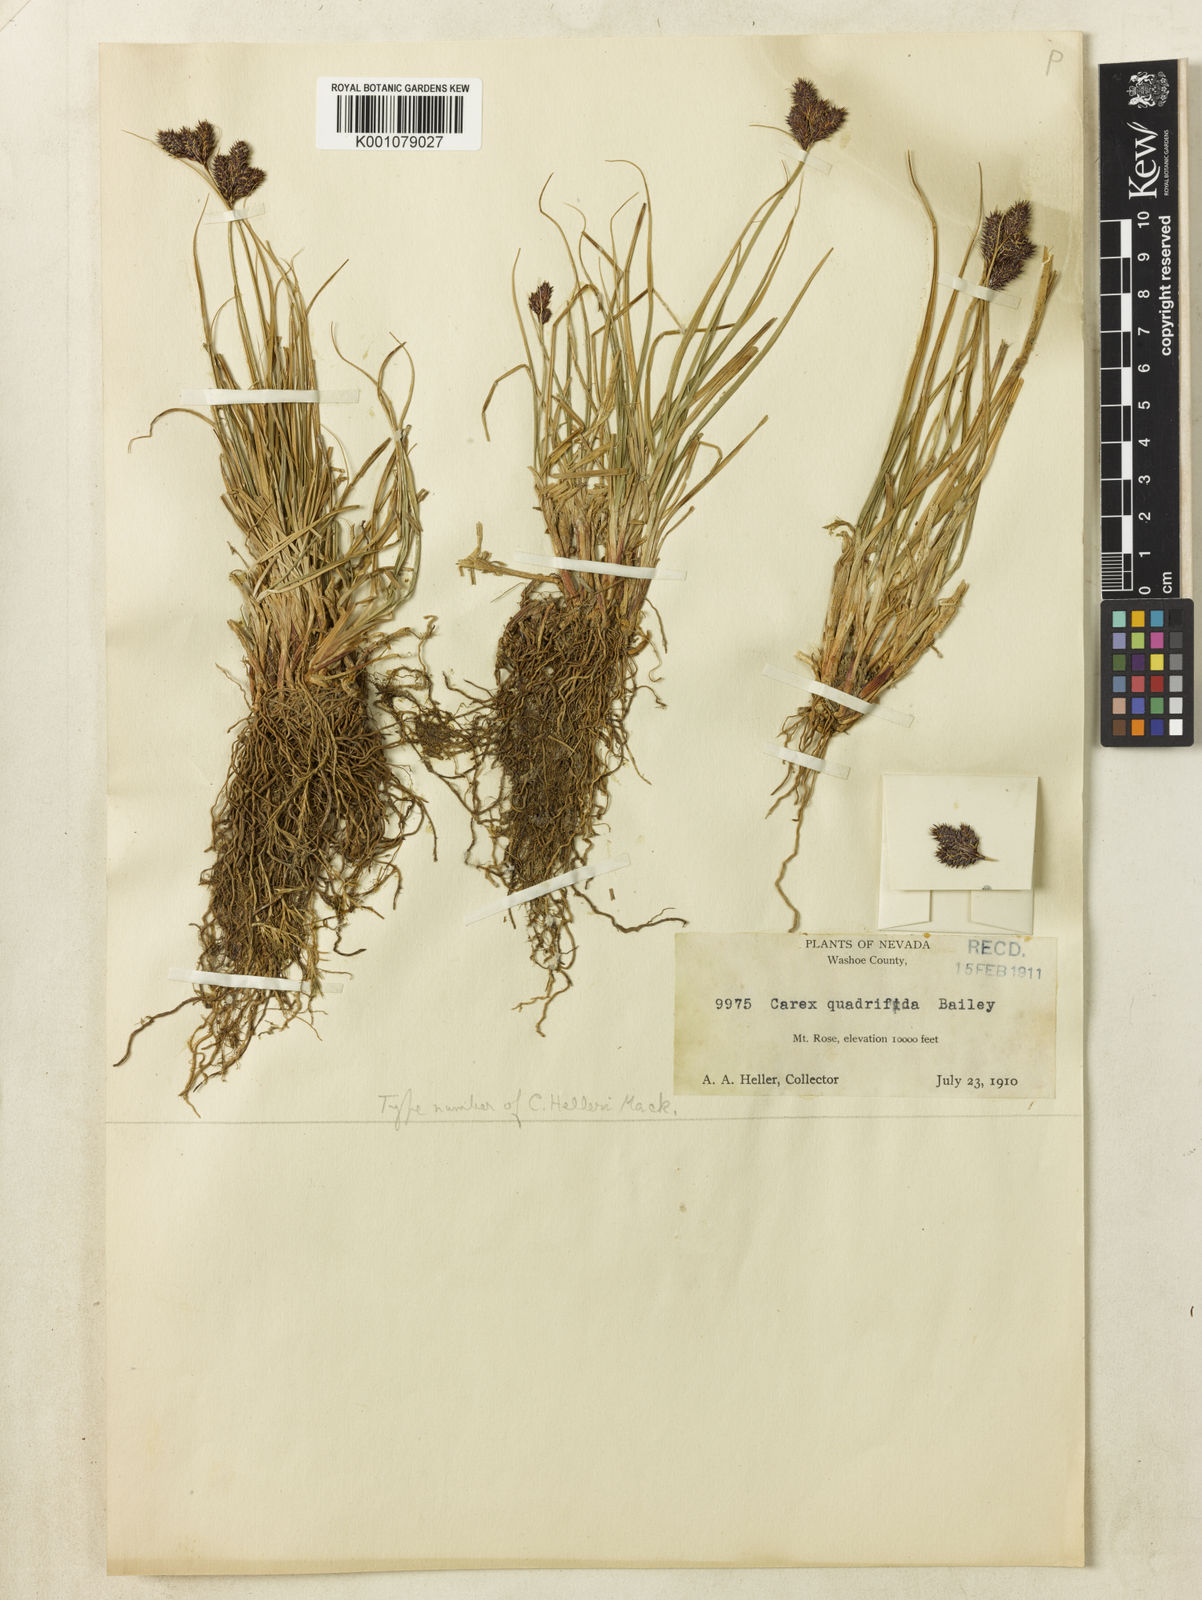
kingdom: Plantae
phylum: Tracheophyta
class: Liliopsida
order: Poales
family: Cyperaceae
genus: Carex
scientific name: Carex helleri
